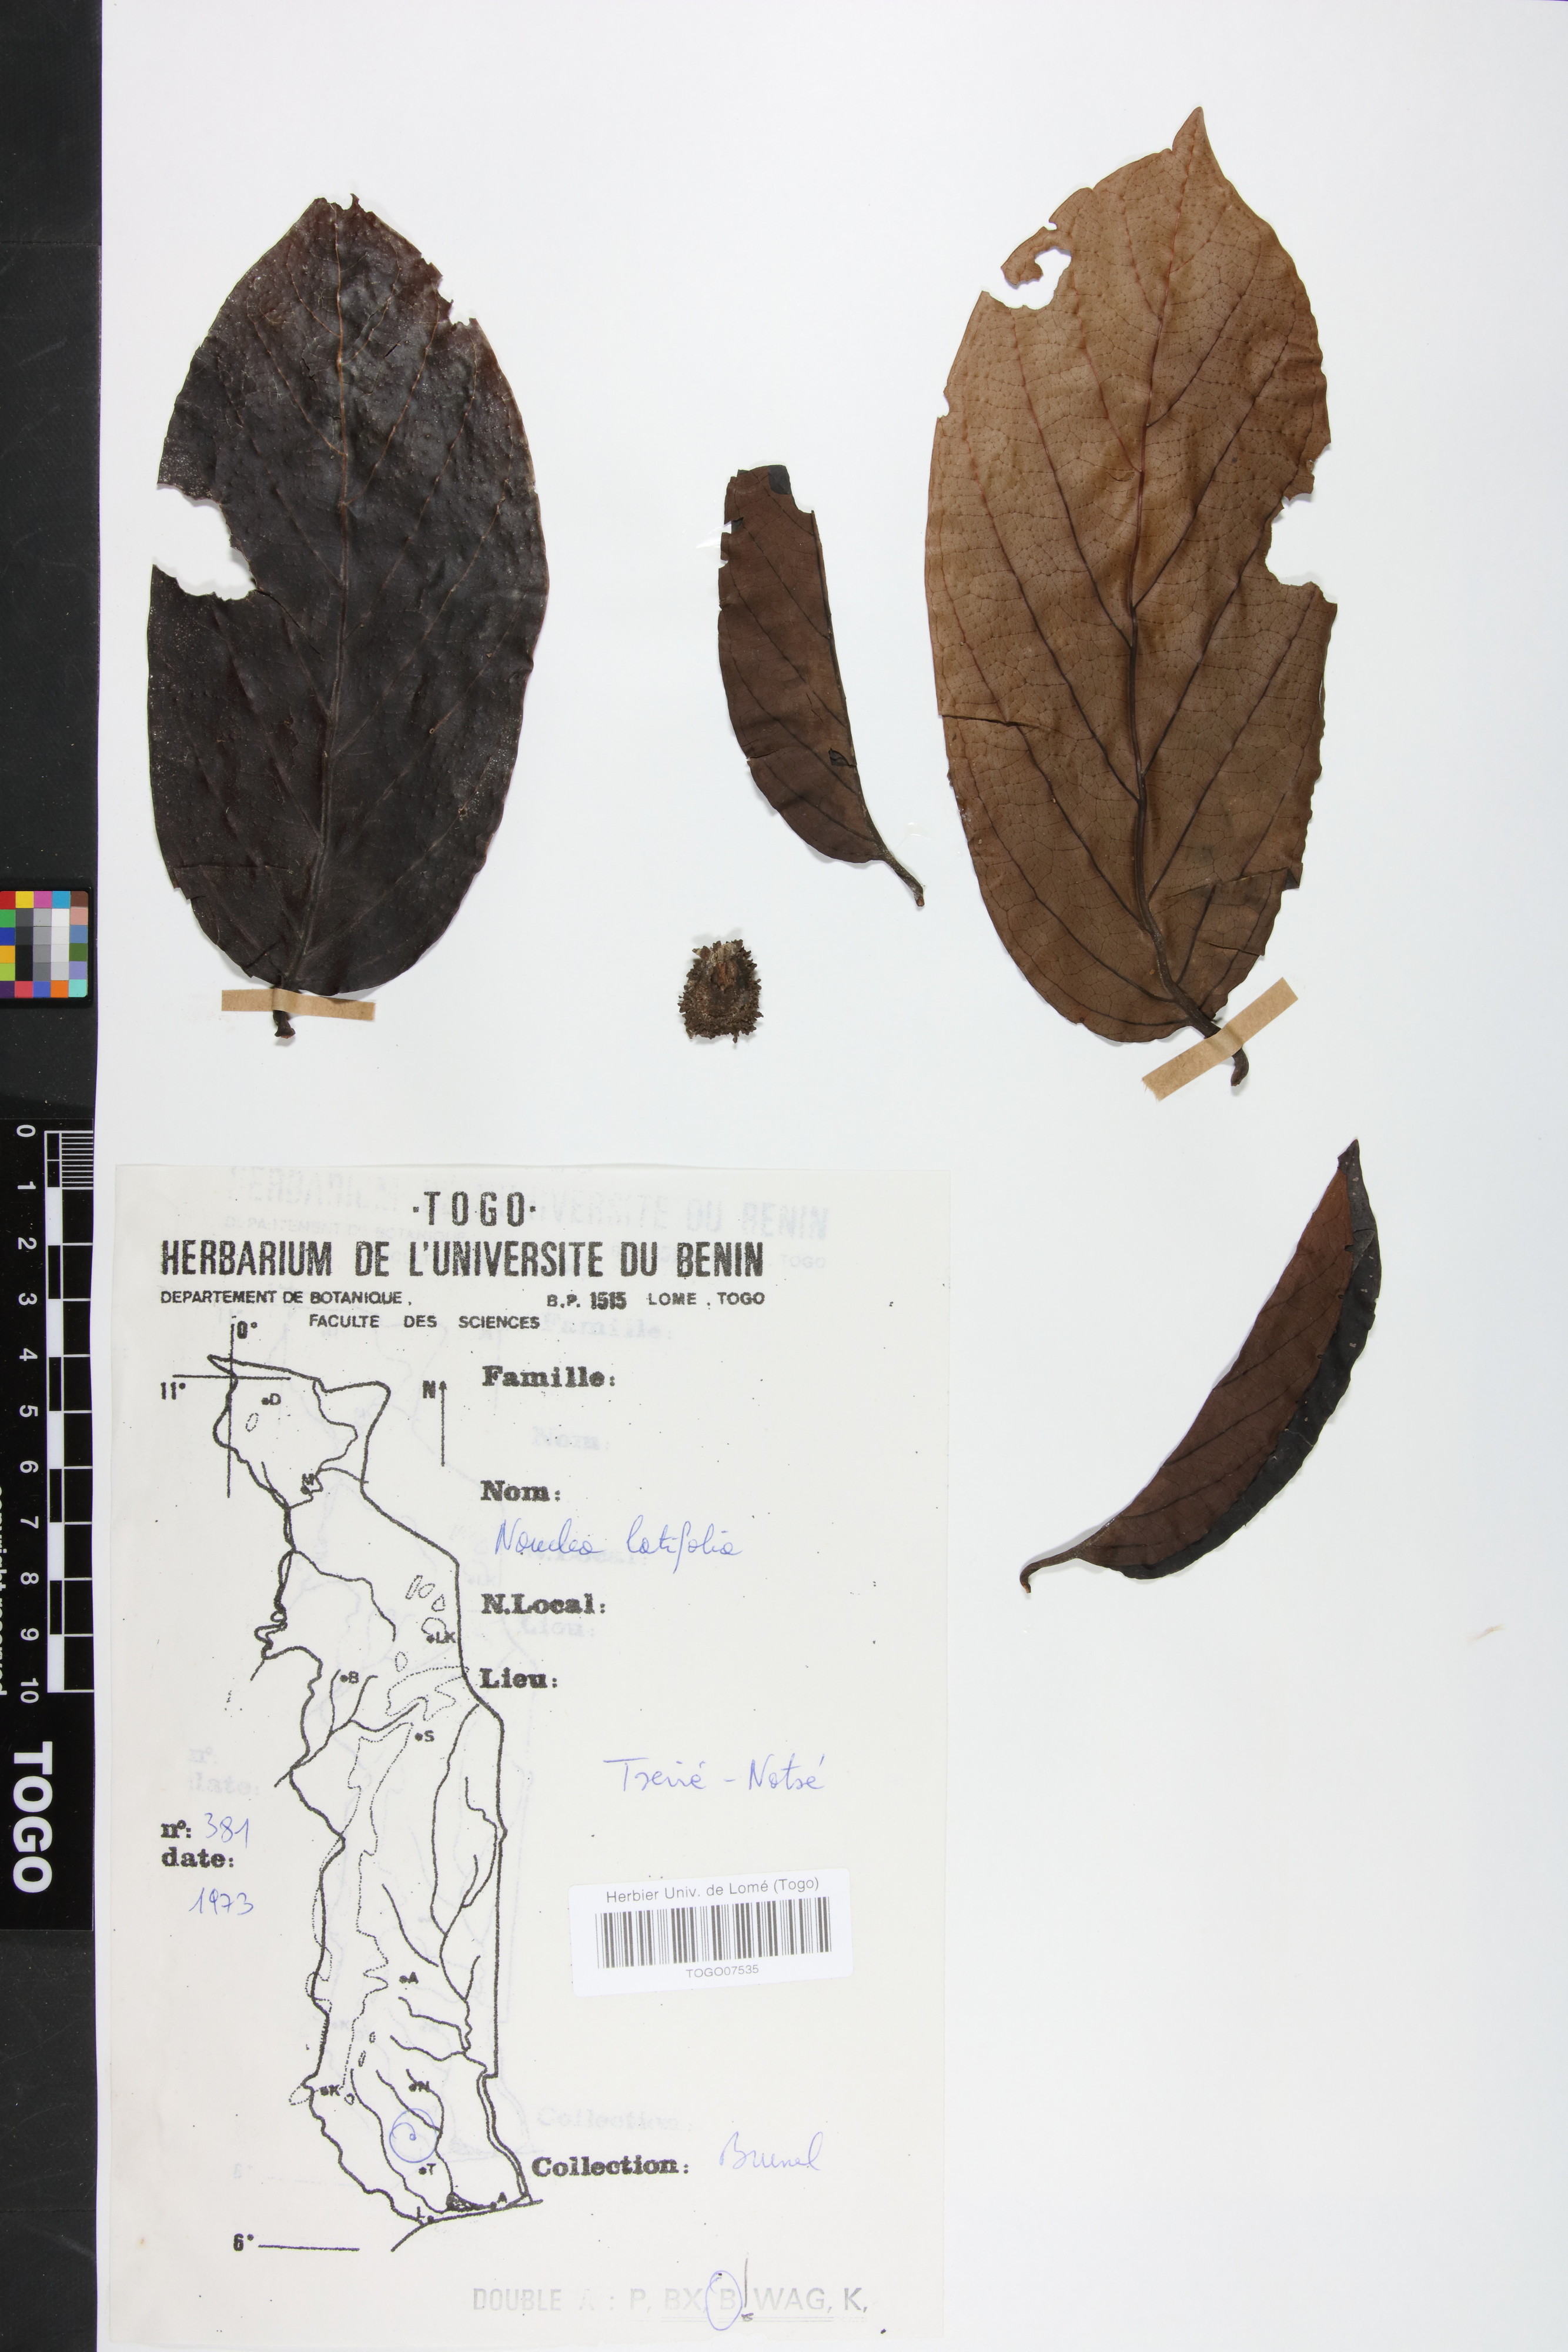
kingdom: Plantae
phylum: Tracheophyta
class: Magnoliopsida
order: Gentianales
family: Rubiaceae
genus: Nauclea
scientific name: Nauclea latifolia
